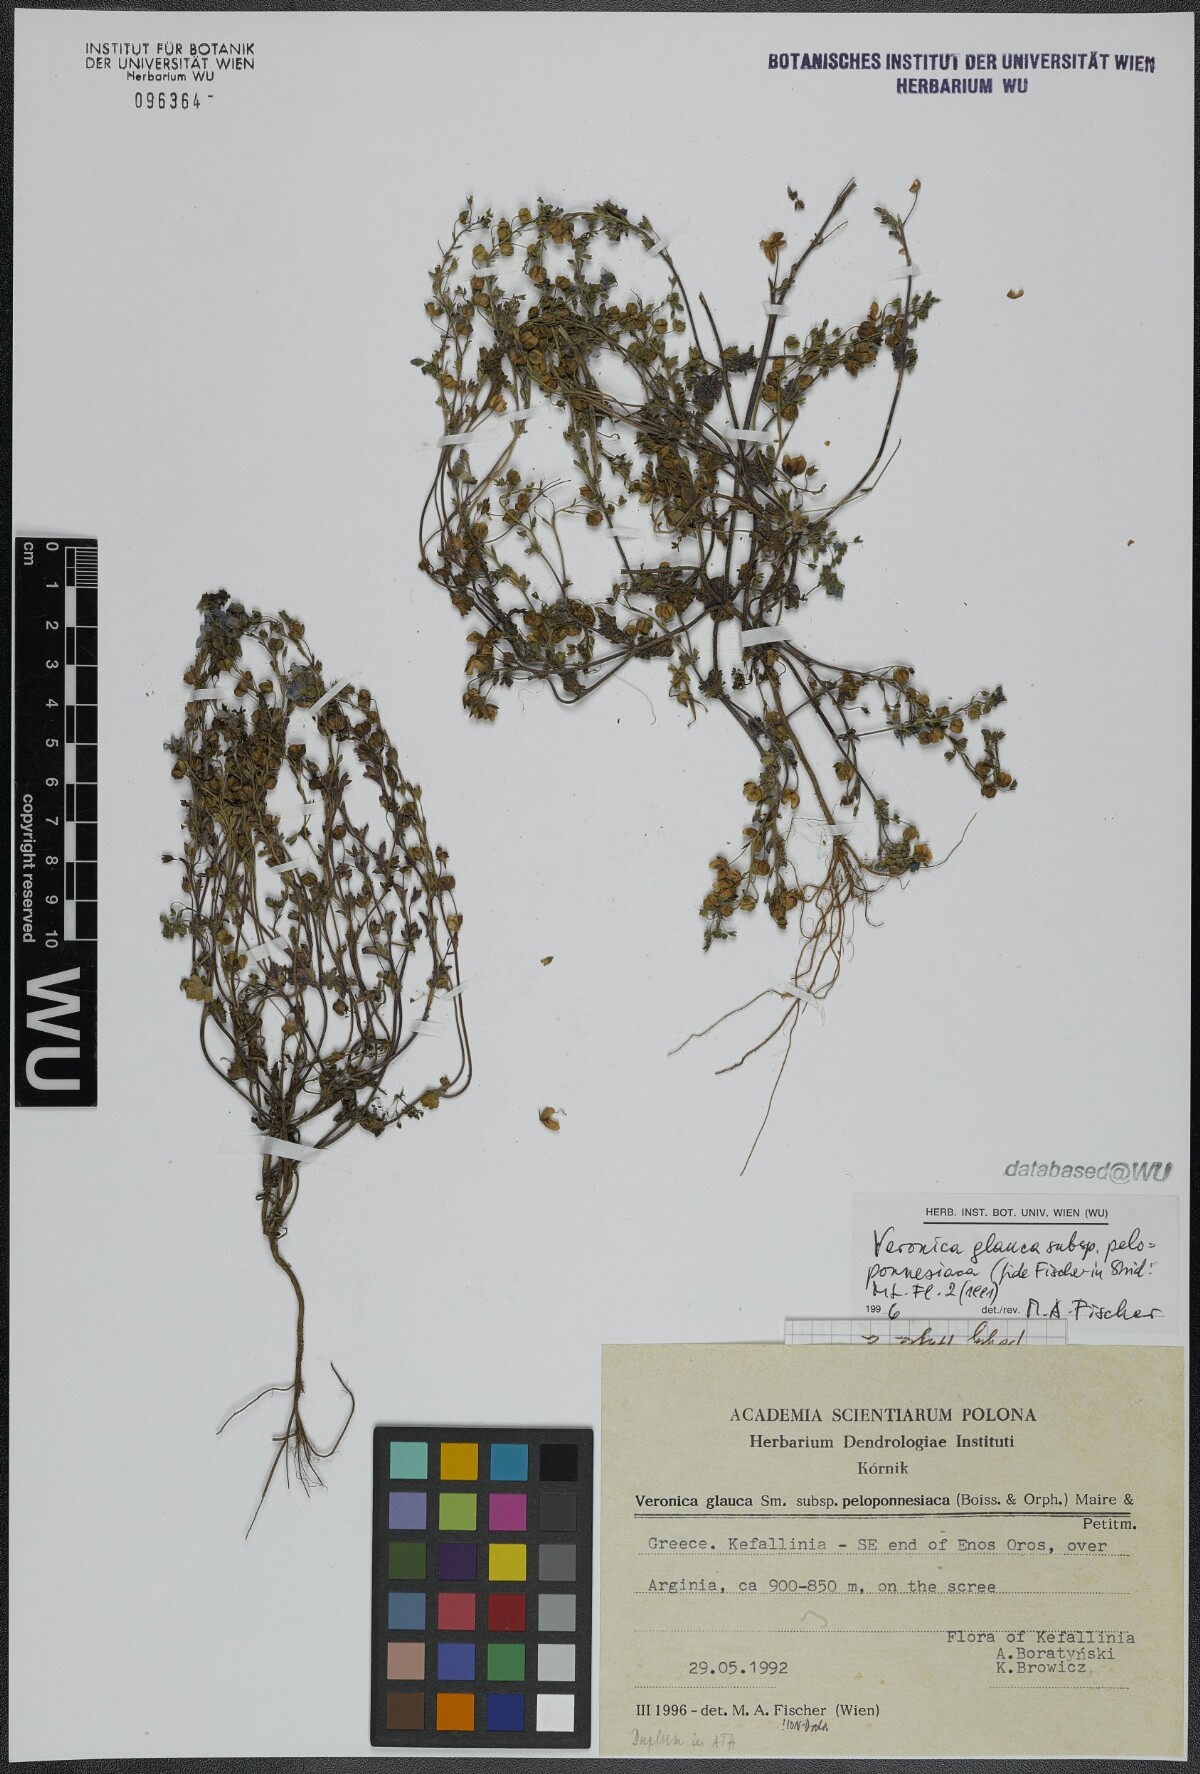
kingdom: Plantae
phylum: Tracheophyta
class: Magnoliopsida
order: Lamiales
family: Plantaginaceae
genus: Veronica
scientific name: Veronica glauca
